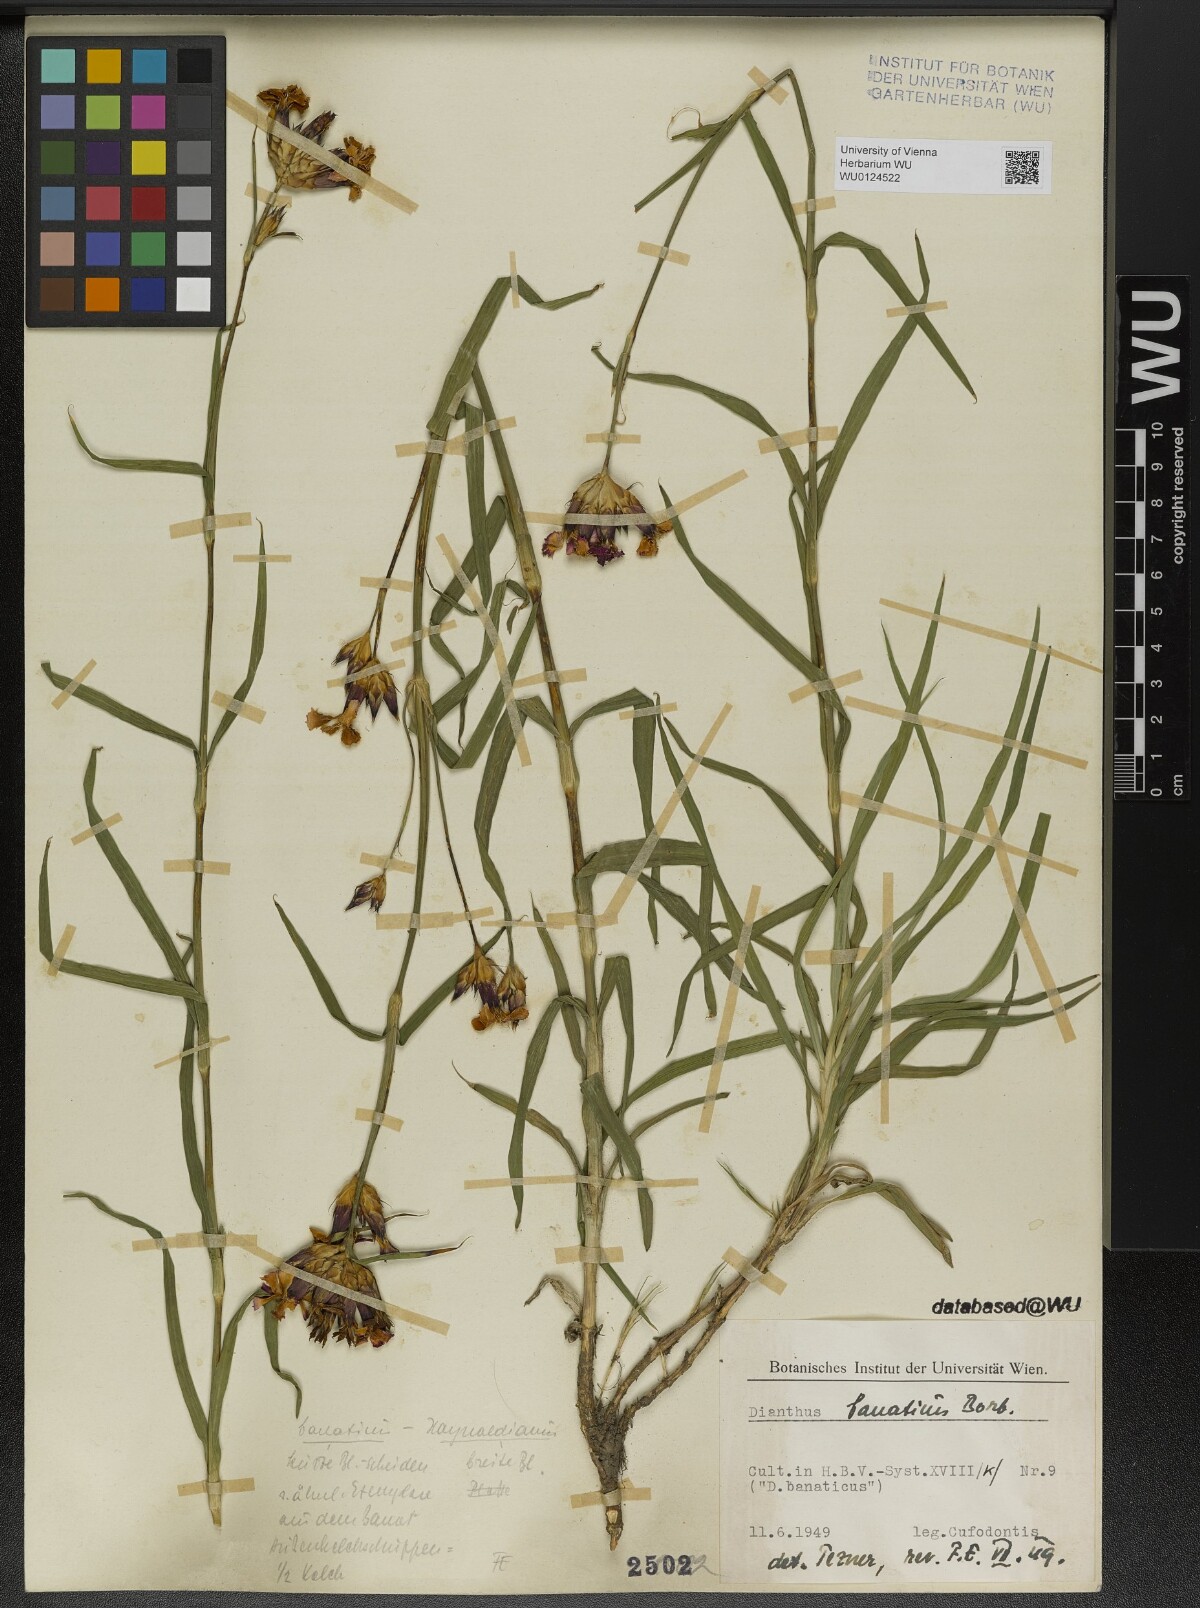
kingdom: Plantae
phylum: Tracheophyta
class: Magnoliopsida
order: Caryophyllales
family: Caryophyllaceae
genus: Dianthus
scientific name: Dianthus giganteus
